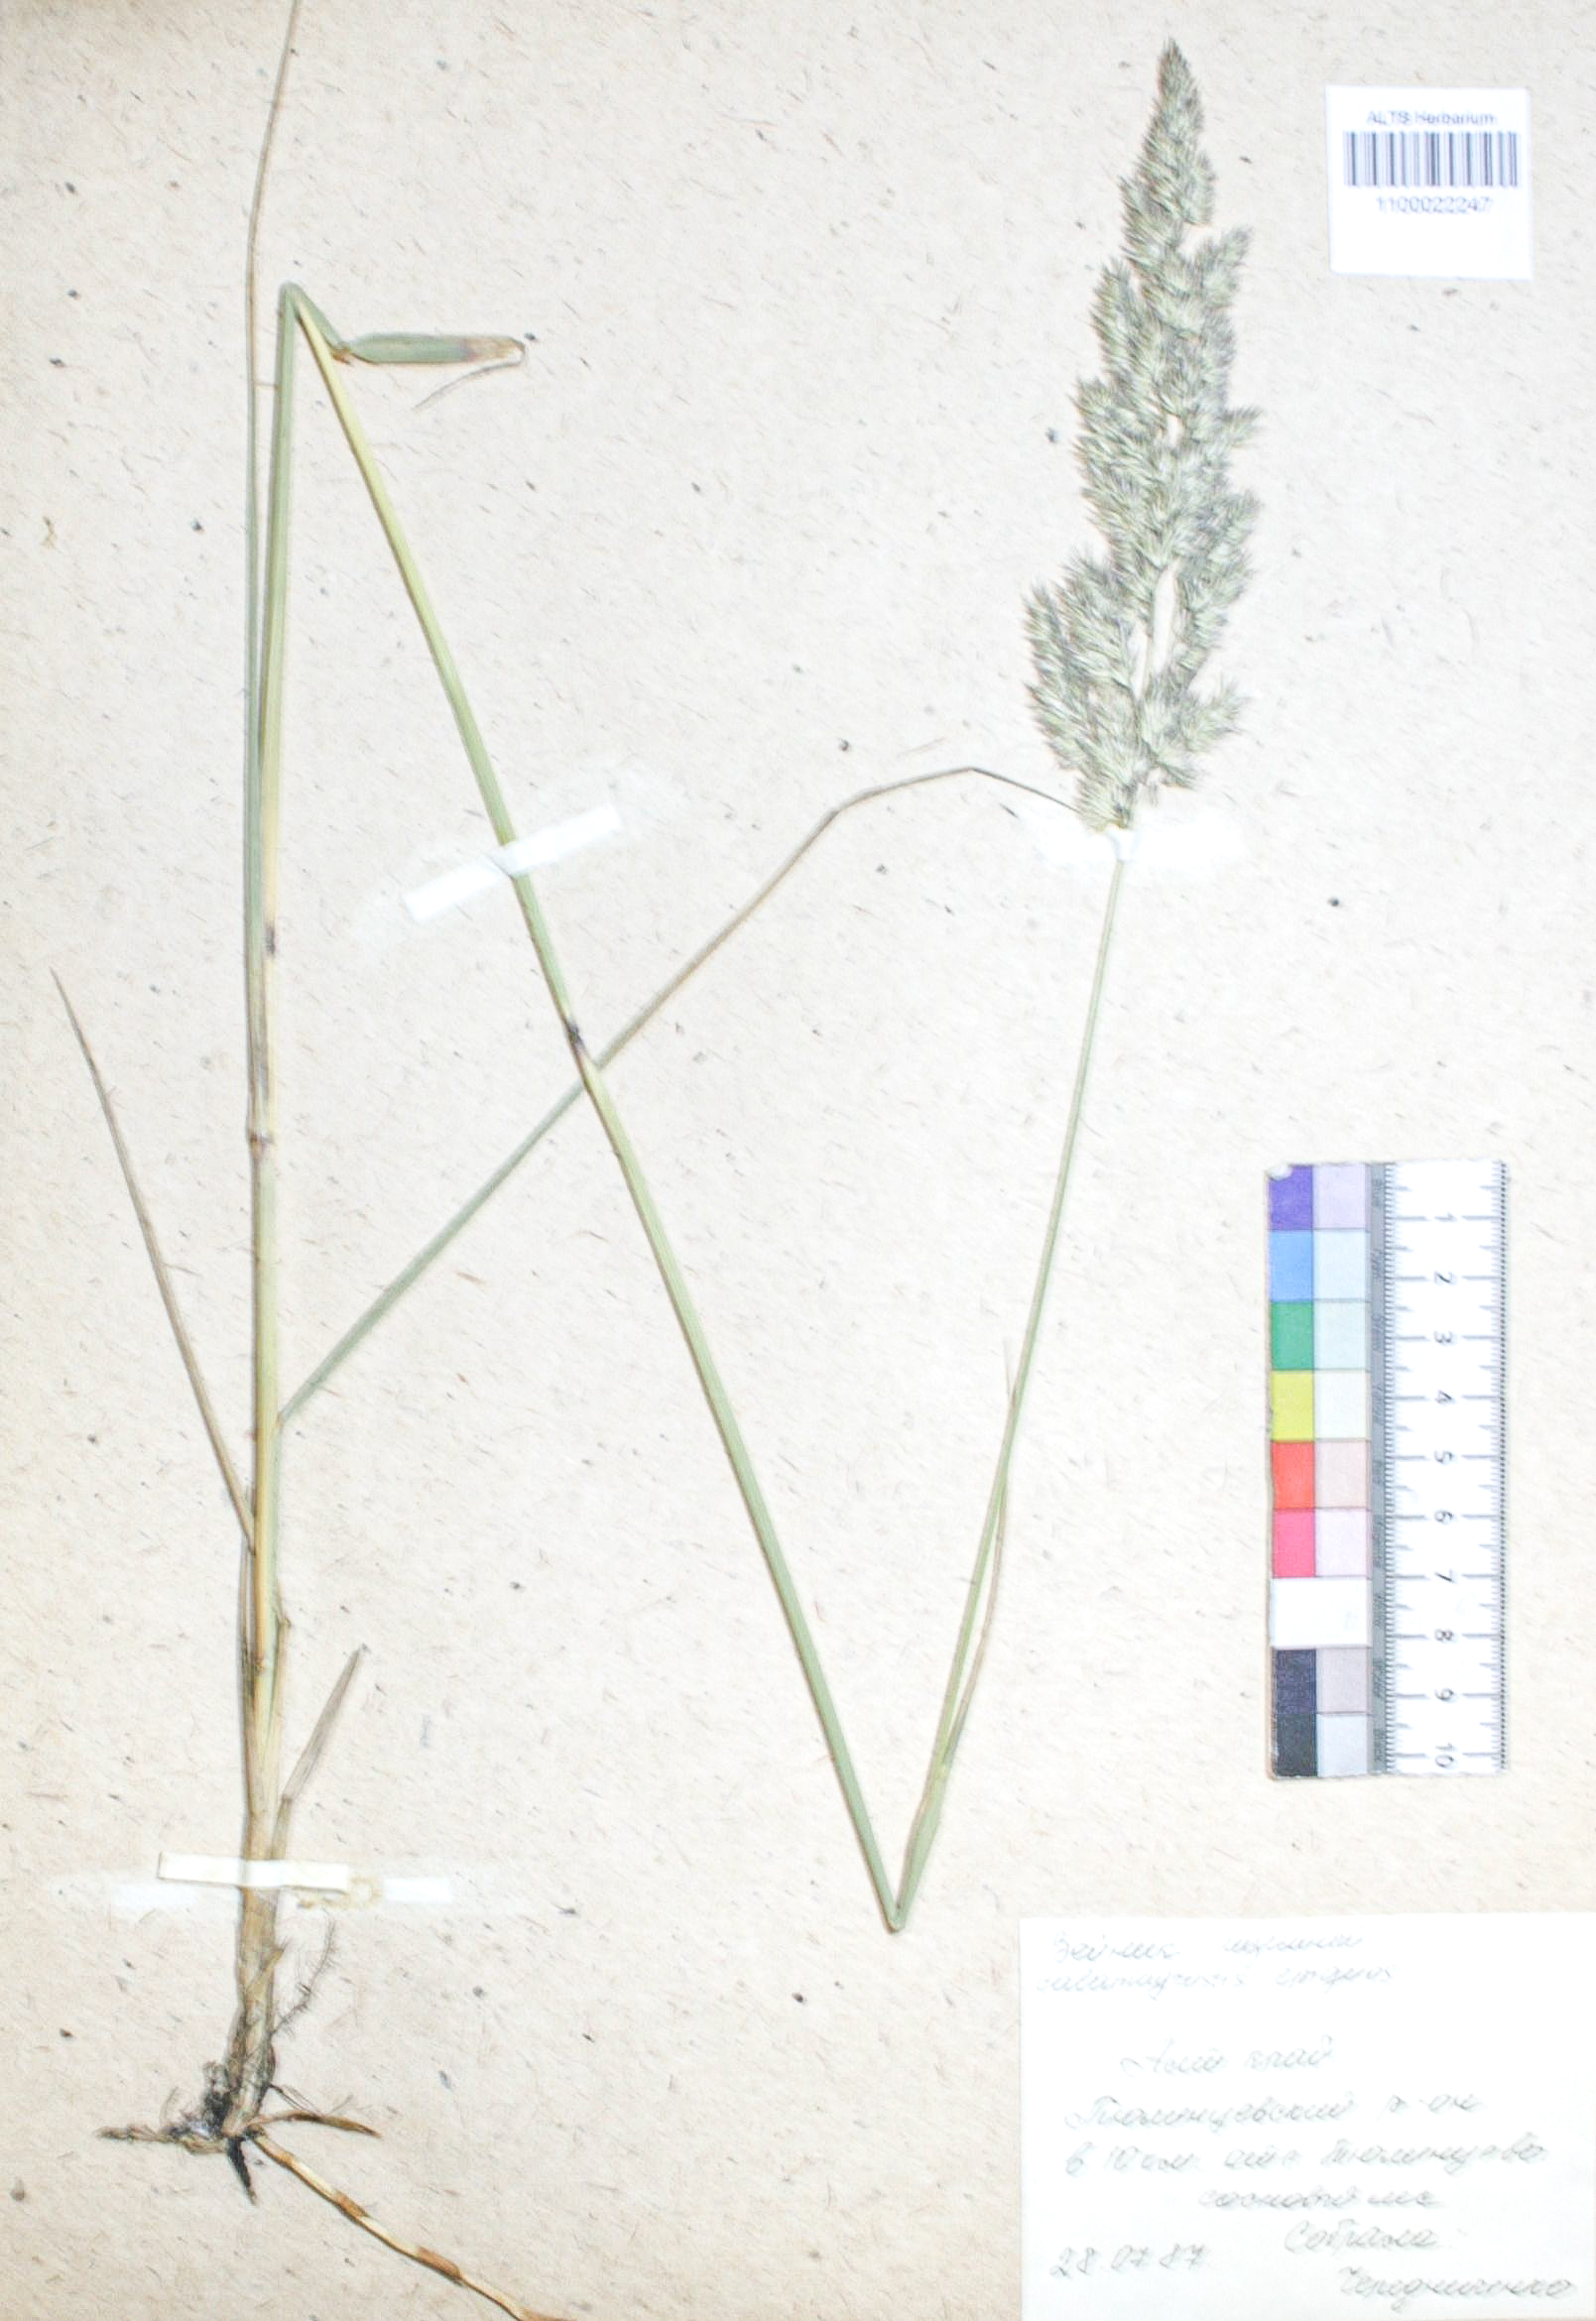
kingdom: Plantae
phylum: Tracheophyta
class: Liliopsida
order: Poales
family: Poaceae
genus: Calamagrostis
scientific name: Calamagrostis epigejos
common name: Wood small-reed
